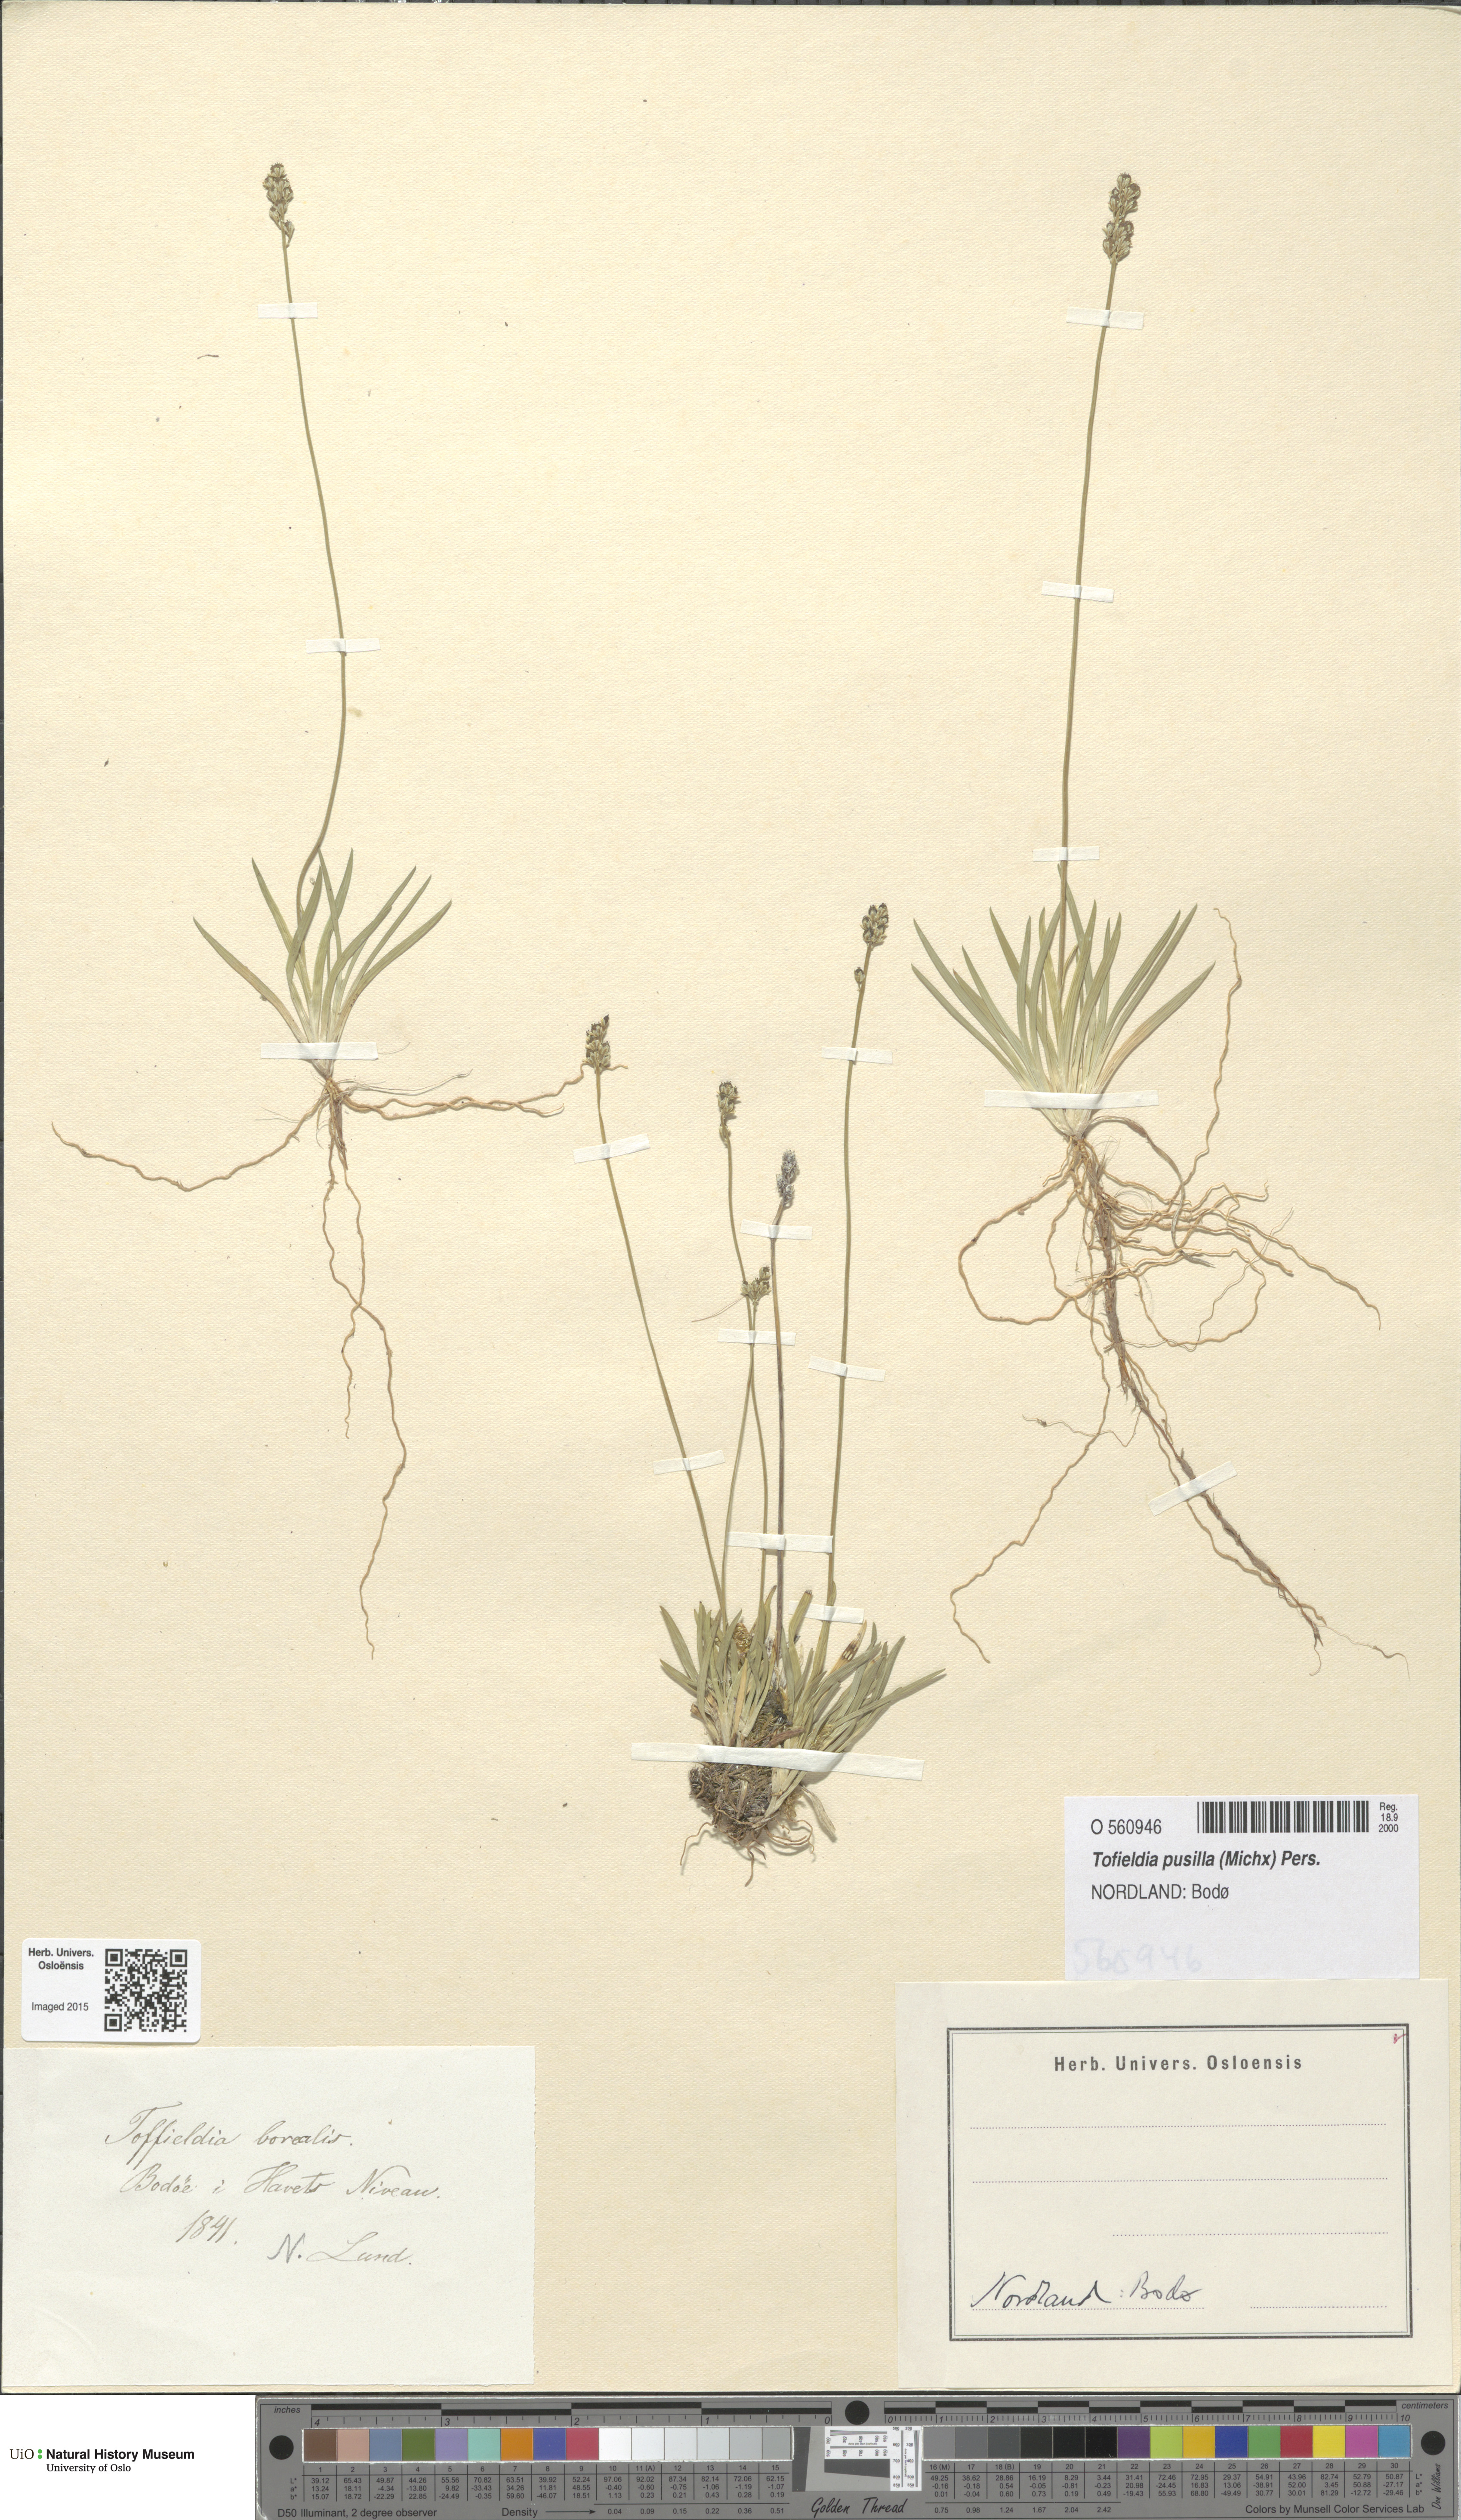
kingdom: Plantae
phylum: Tracheophyta
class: Liliopsida
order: Alismatales
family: Tofieldiaceae
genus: Tofieldia
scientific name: Tofieldia pusilla
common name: Scottish false asphodel
